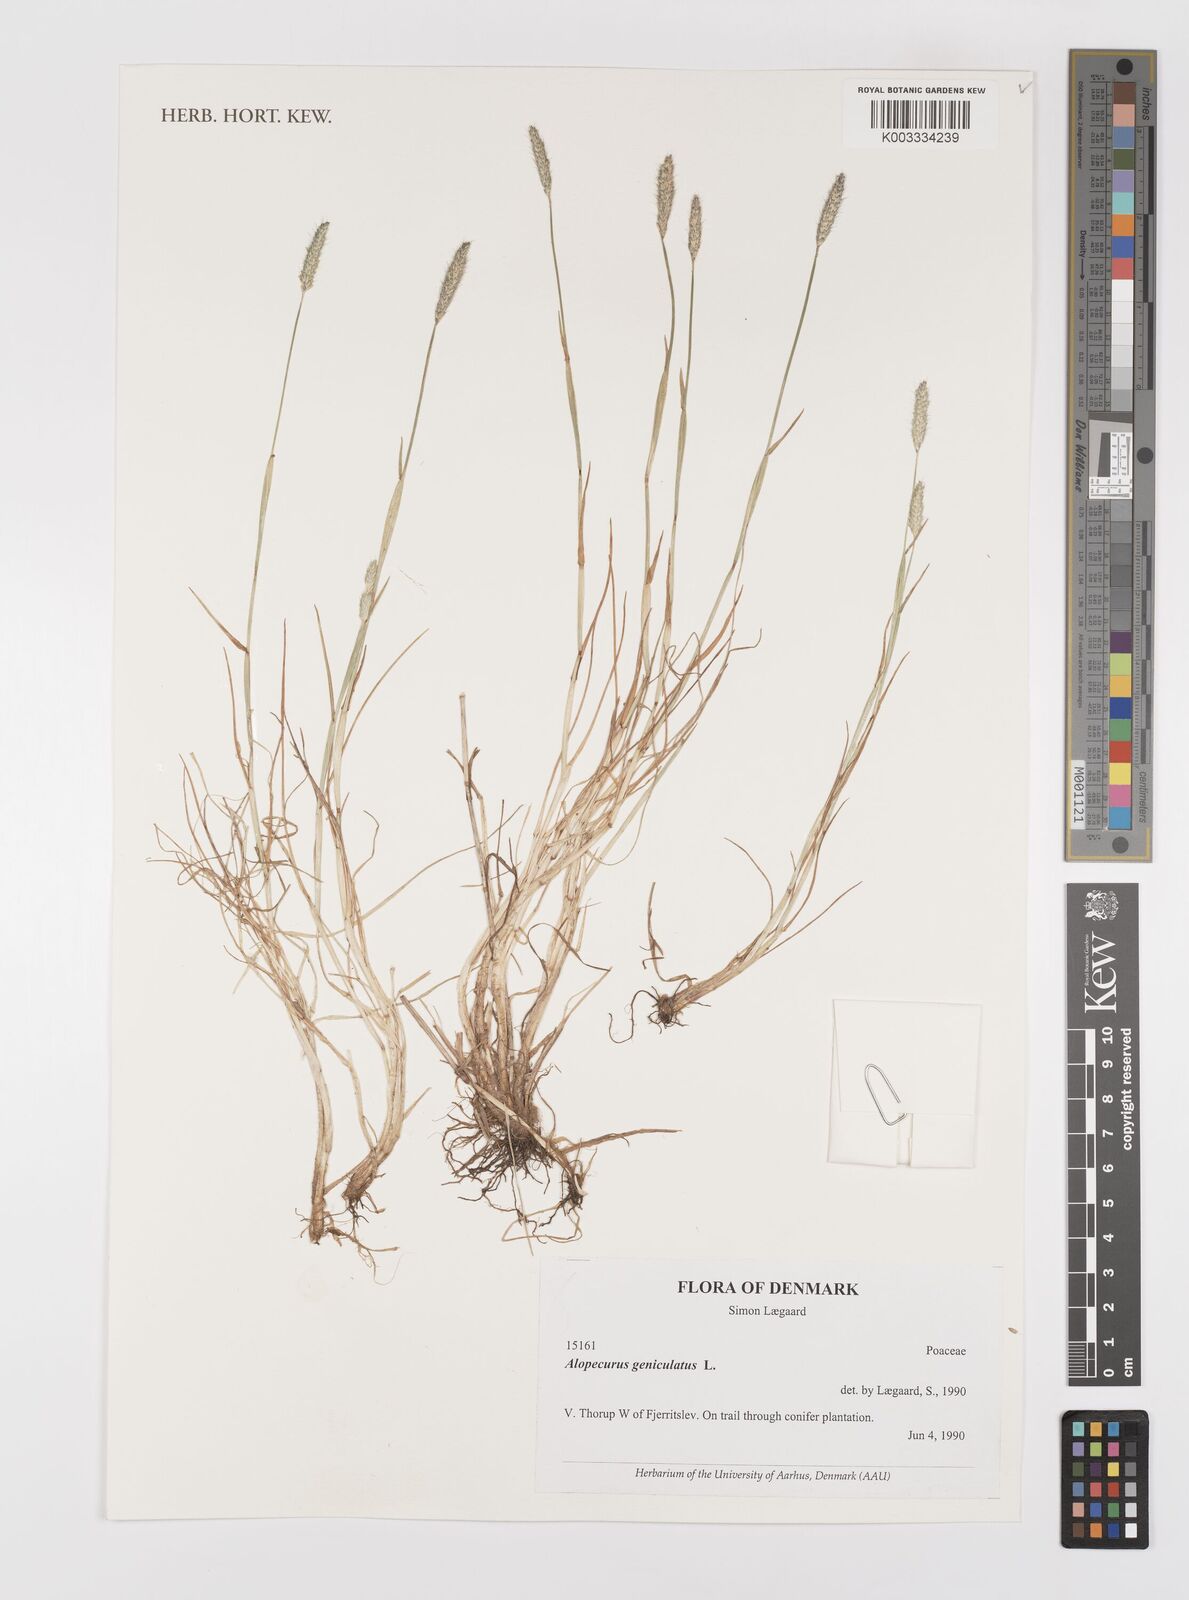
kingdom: Plantae
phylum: Tracheophyta
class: Liliopsida
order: Poales
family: Poaceae
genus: Alopecurus
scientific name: Alopecurus geniculatus
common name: Water foxtail
